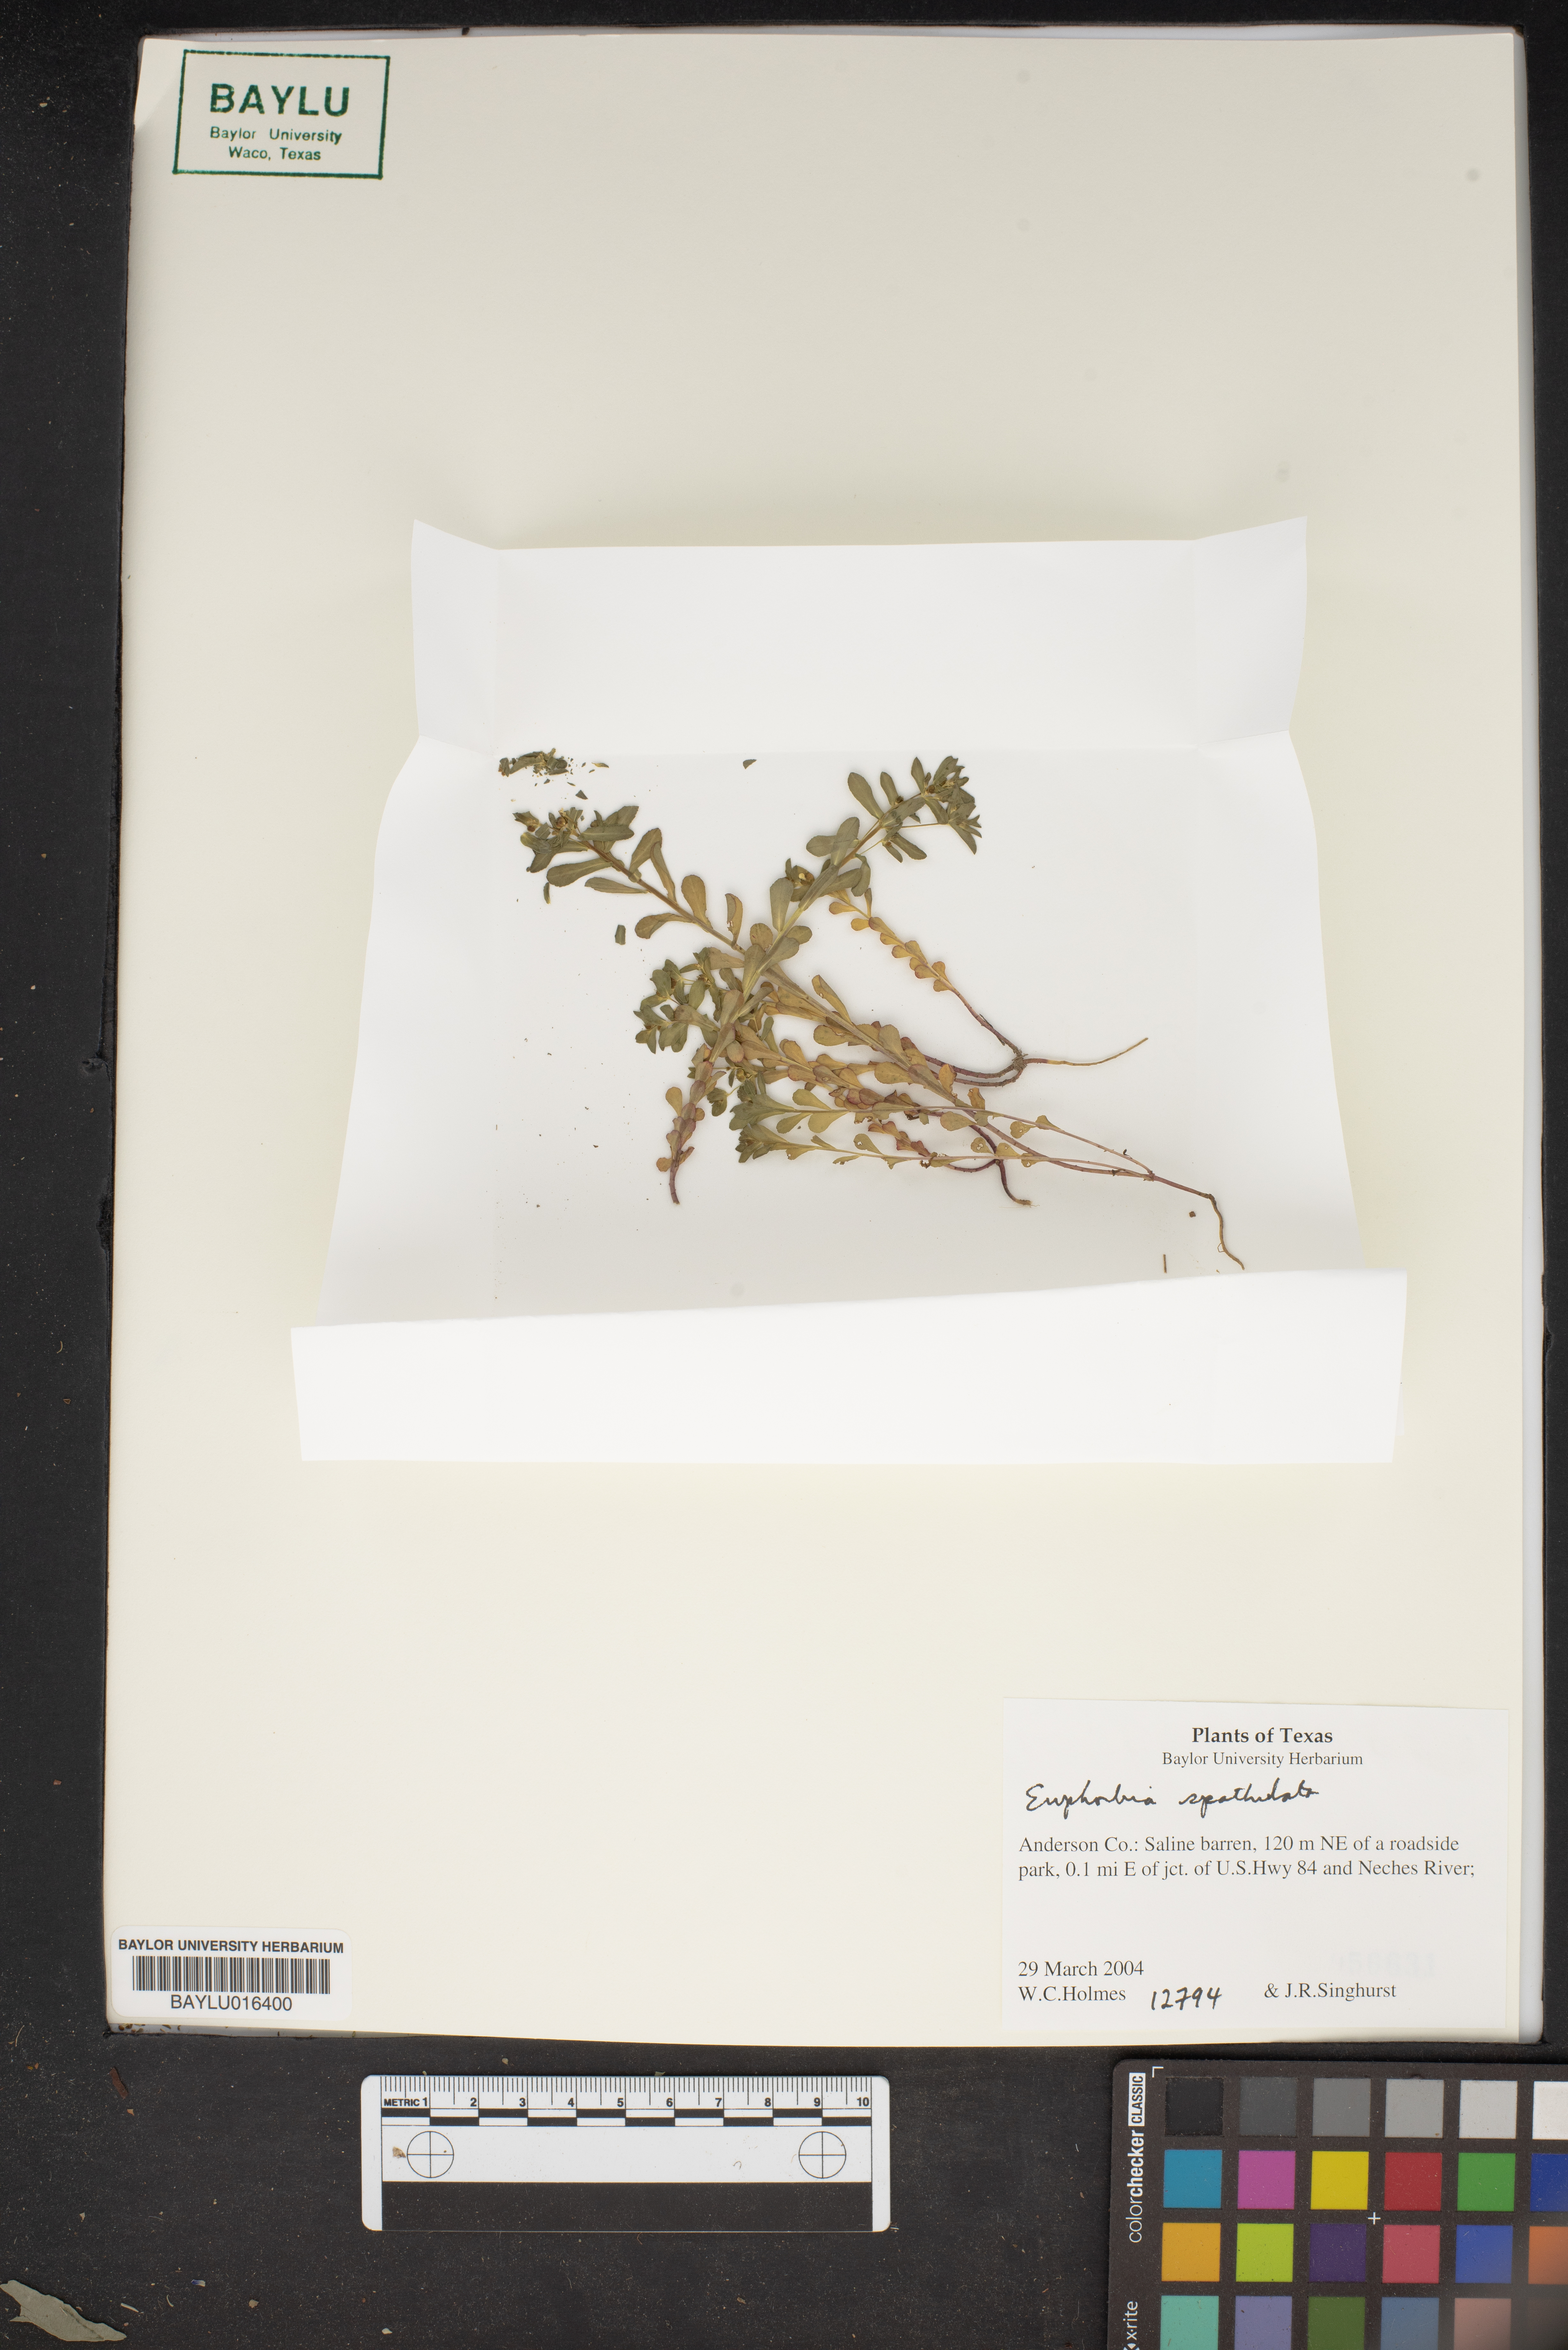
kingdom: Plantae
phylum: Tracheophyta
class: Magnoliopsida
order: Malpighiales
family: Euphorbiaceae
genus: Euphorbia
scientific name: Euphorbia spathulata
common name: Blunt spurge
